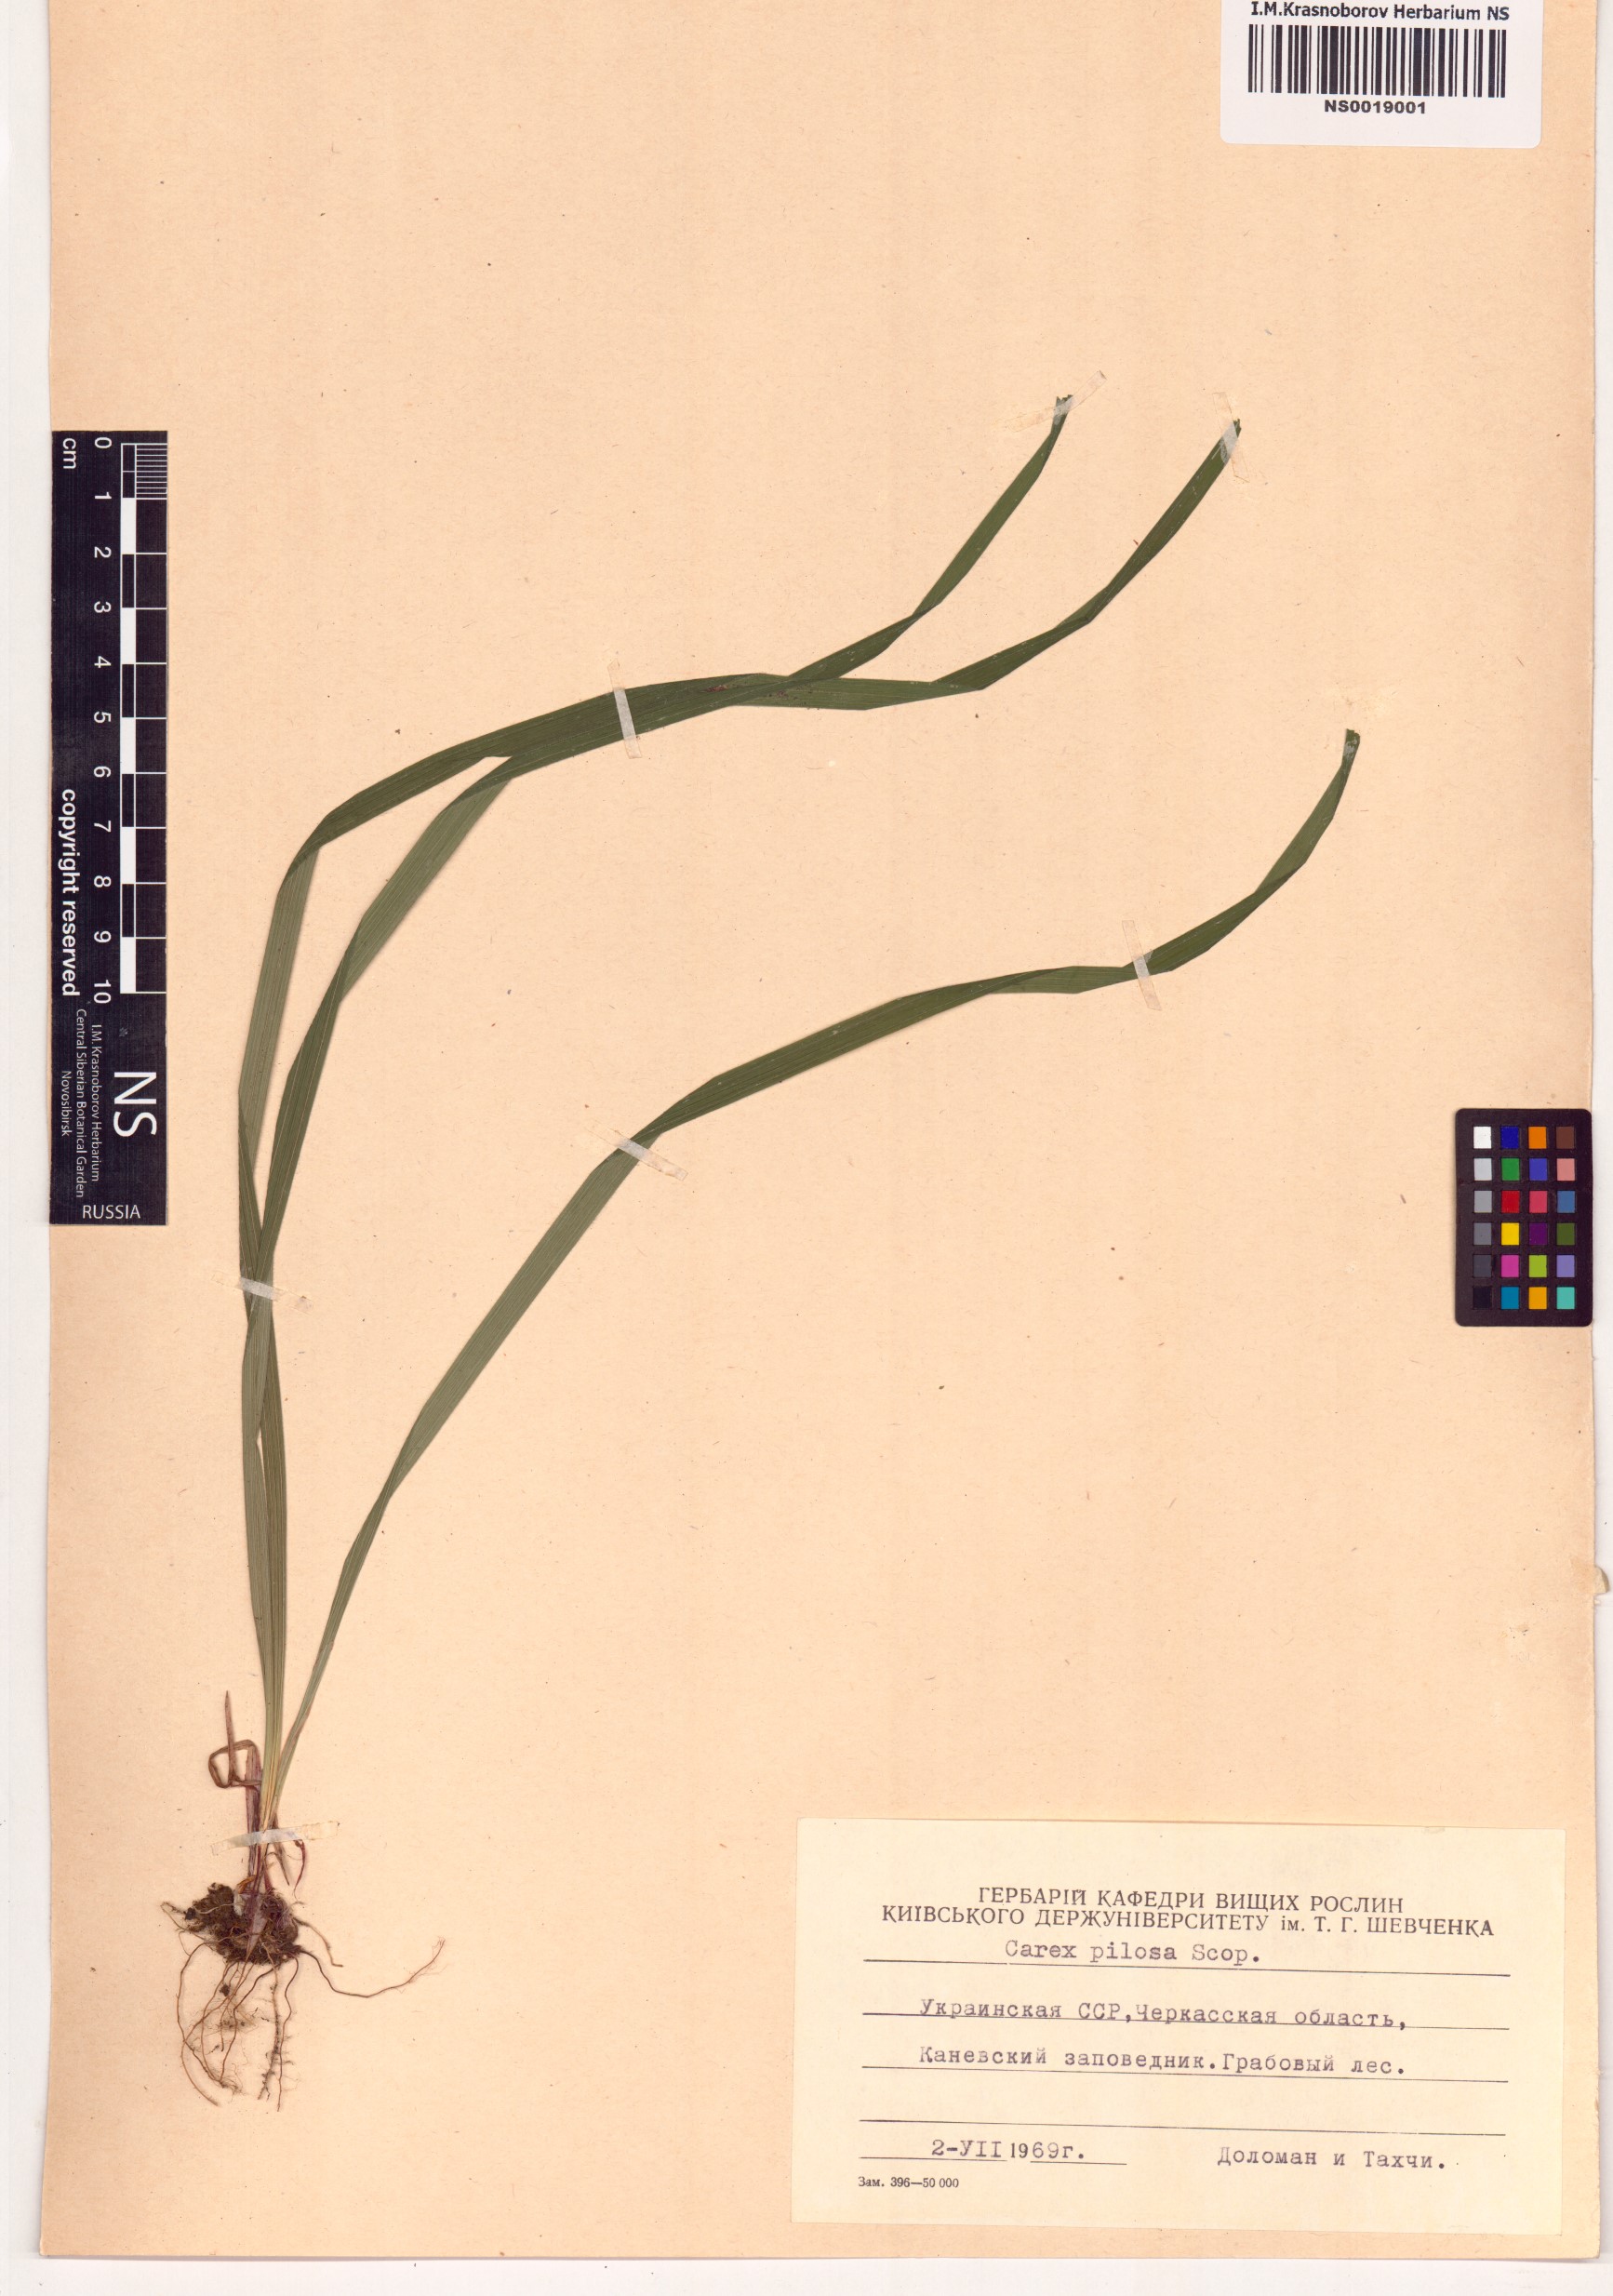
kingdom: Plantae
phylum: Tracheophyta
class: Liliopsida
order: Poales
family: Cyperaceae
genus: Carex
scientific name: Carex pilosa
